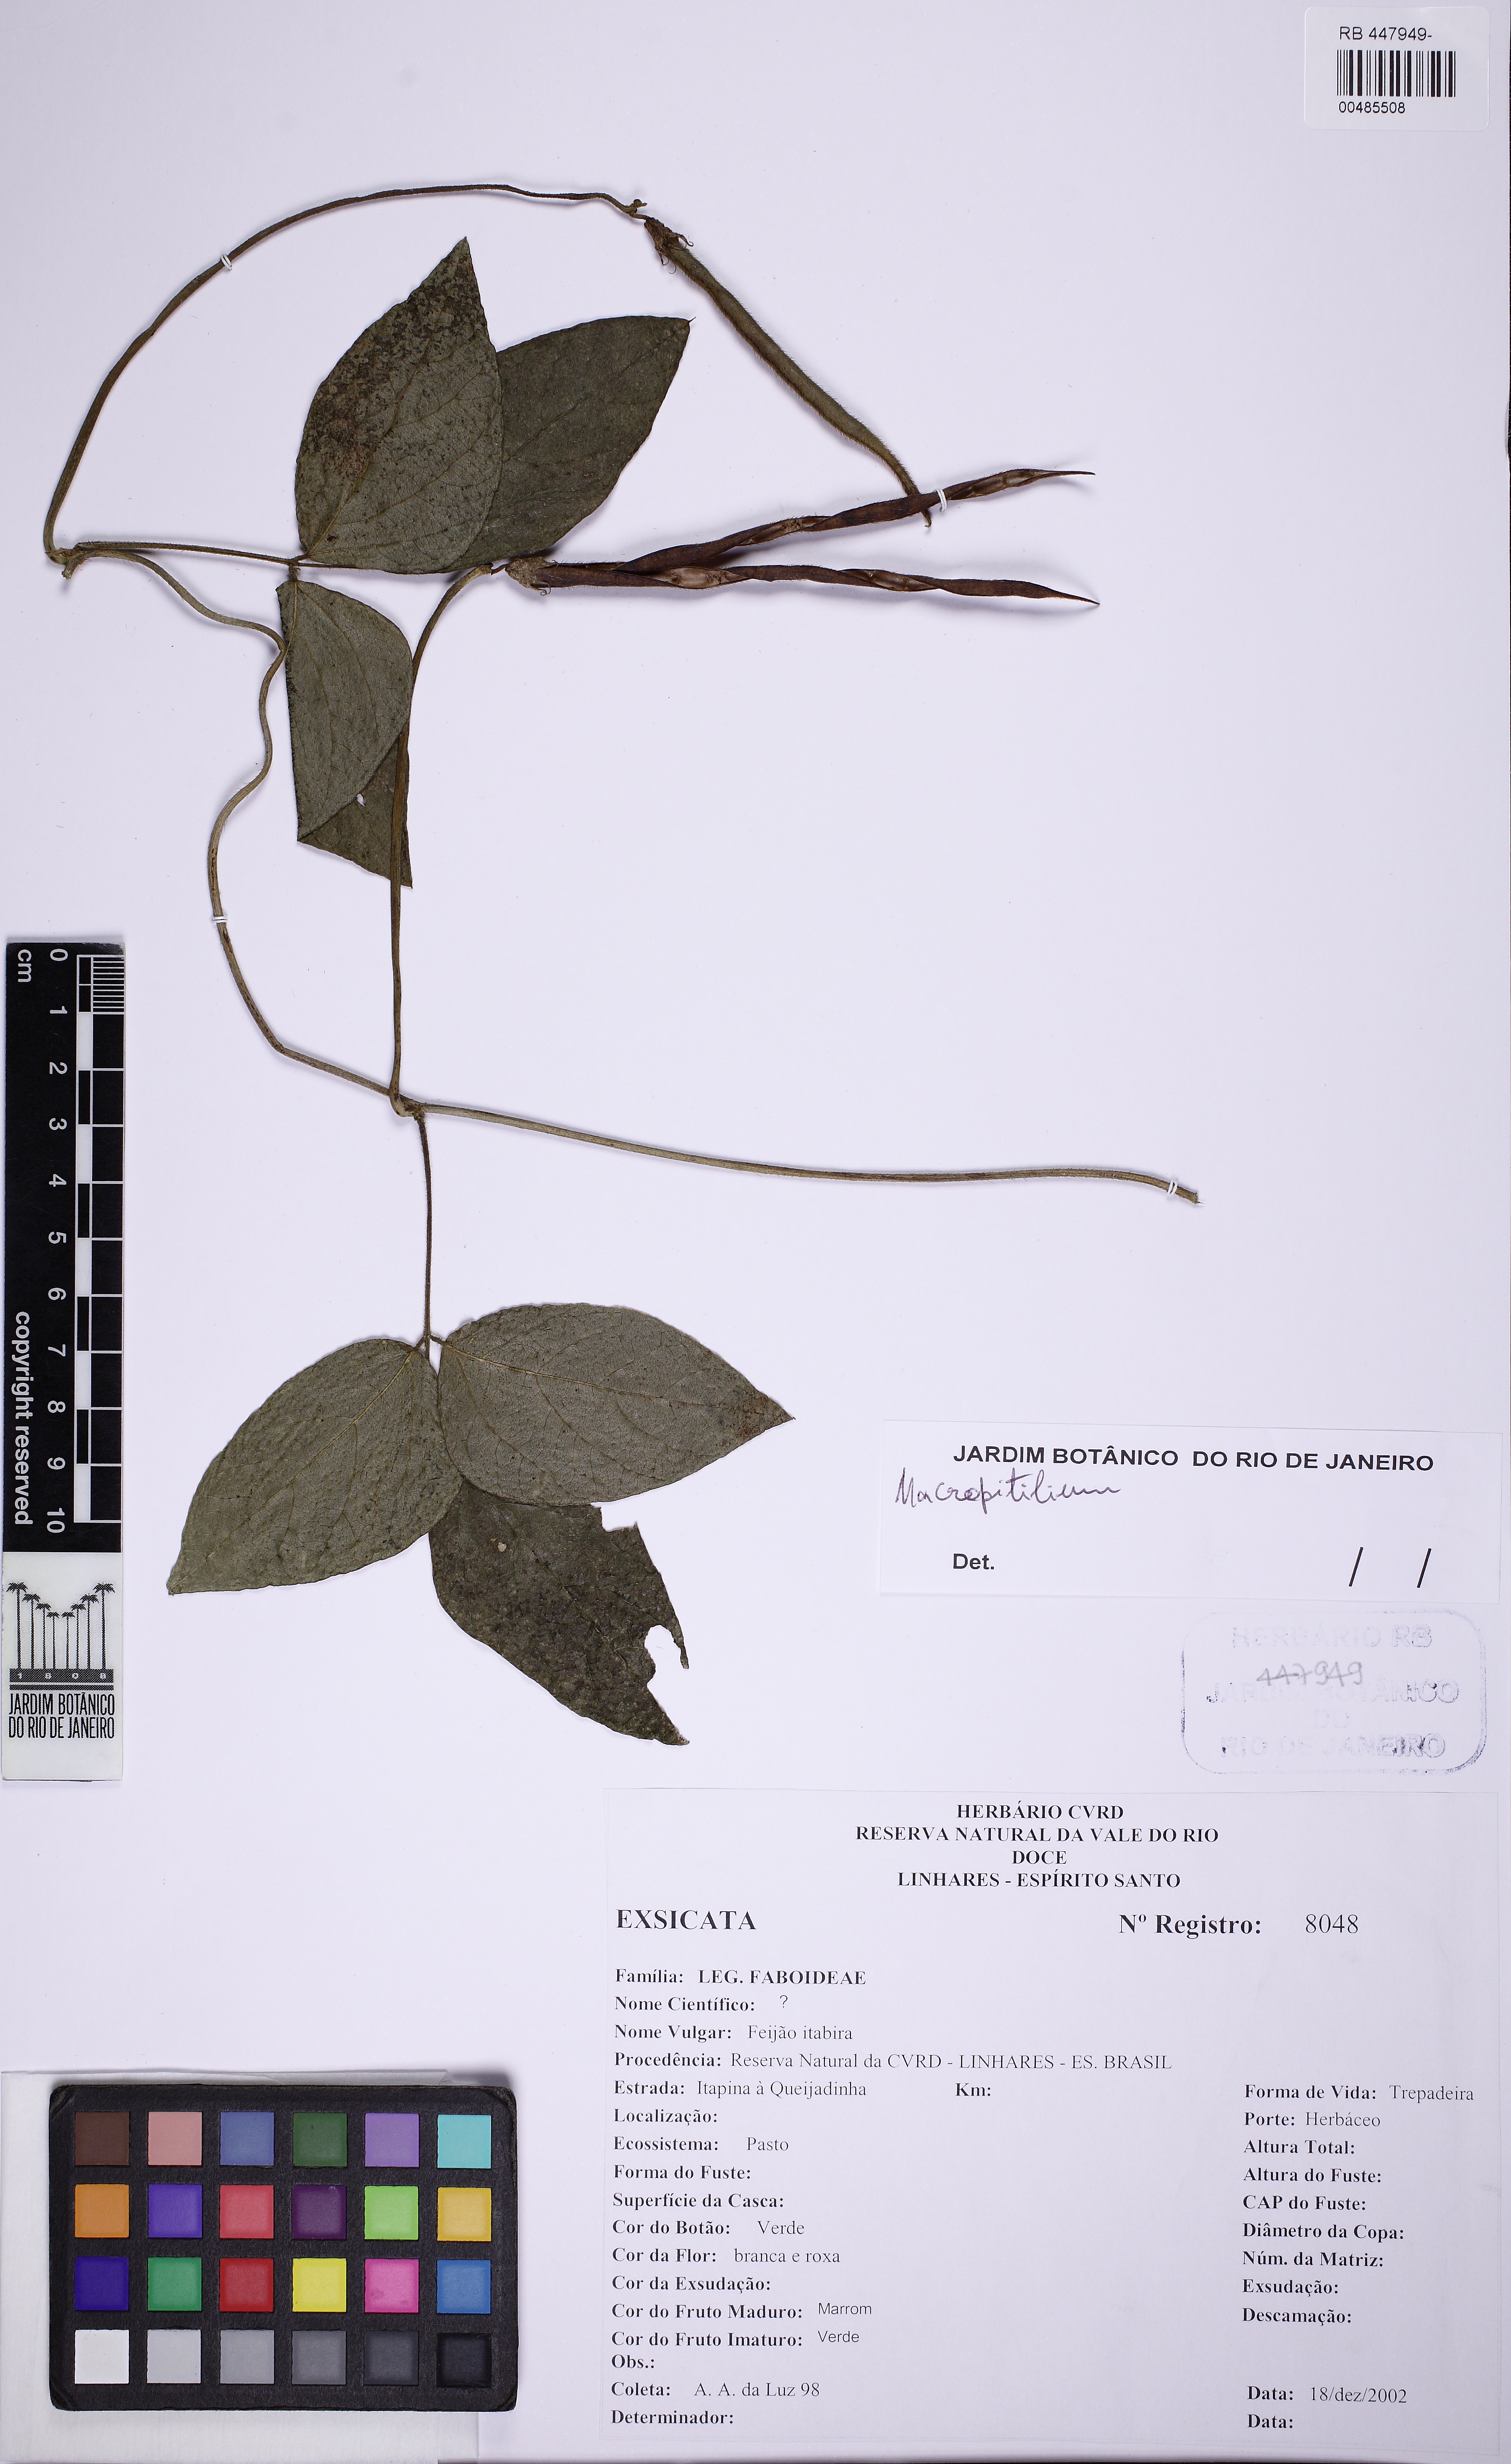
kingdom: Plantae
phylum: Tracheophyta
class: Magnoliopsida
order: Fabales
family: Fabaceae
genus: Vigna
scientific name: Vigna
